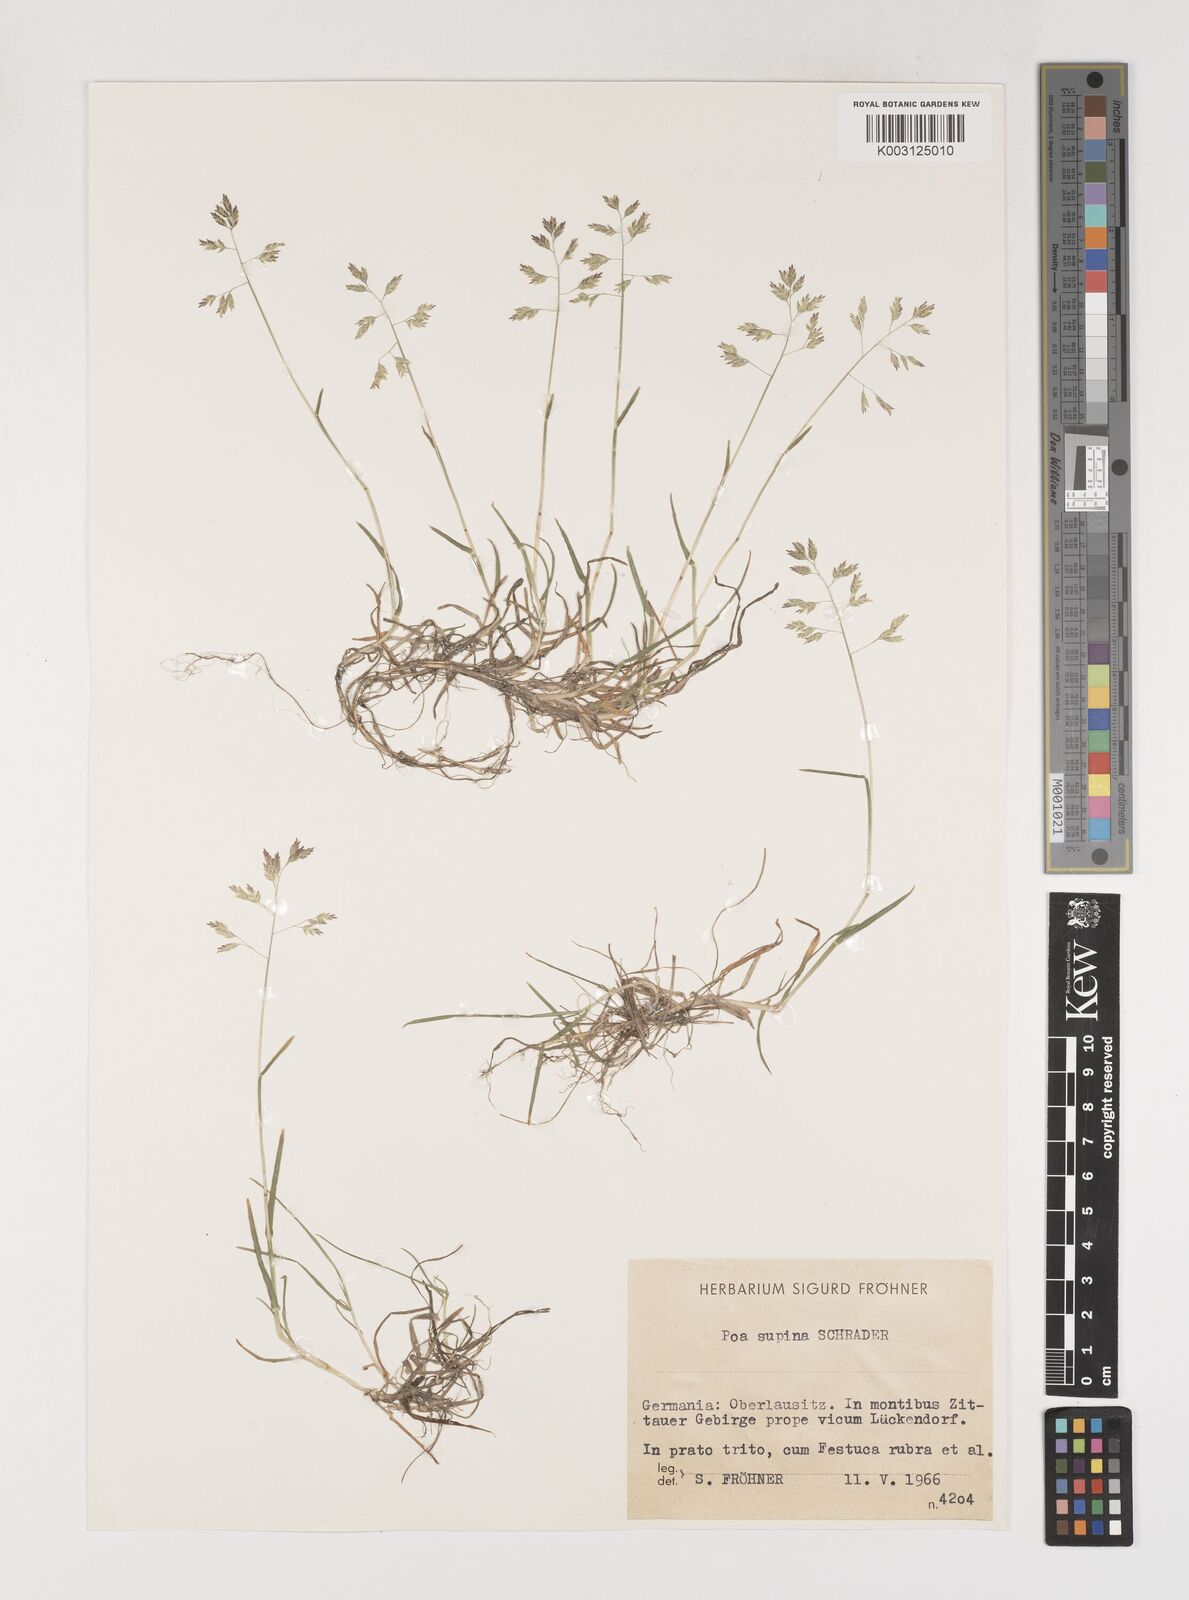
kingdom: Plantae
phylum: Tracheophyta
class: Liliopsida
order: Poales
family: Poaceae
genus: Poa
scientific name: Poa supina
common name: Supina bluegrass
